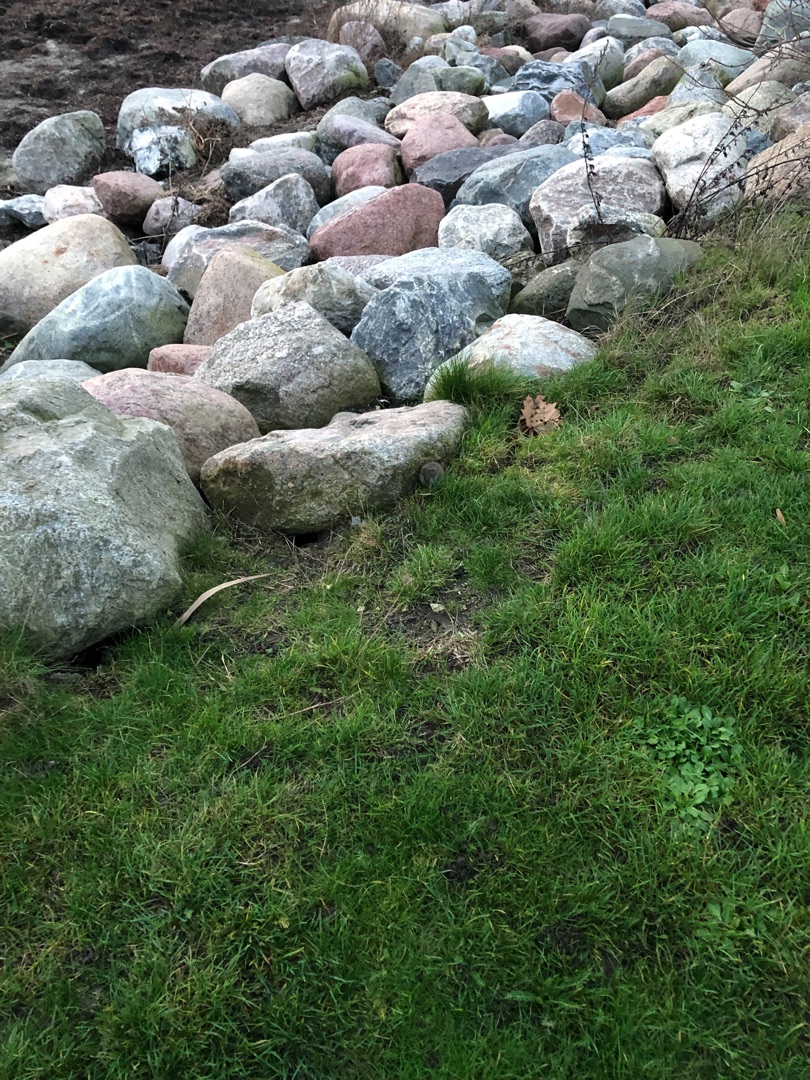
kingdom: Animalia
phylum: Chordata
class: Mammalia
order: Rodentia
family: Cricetidae
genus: Microtus
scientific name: Microtus agrestis
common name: Almindelig markmus
